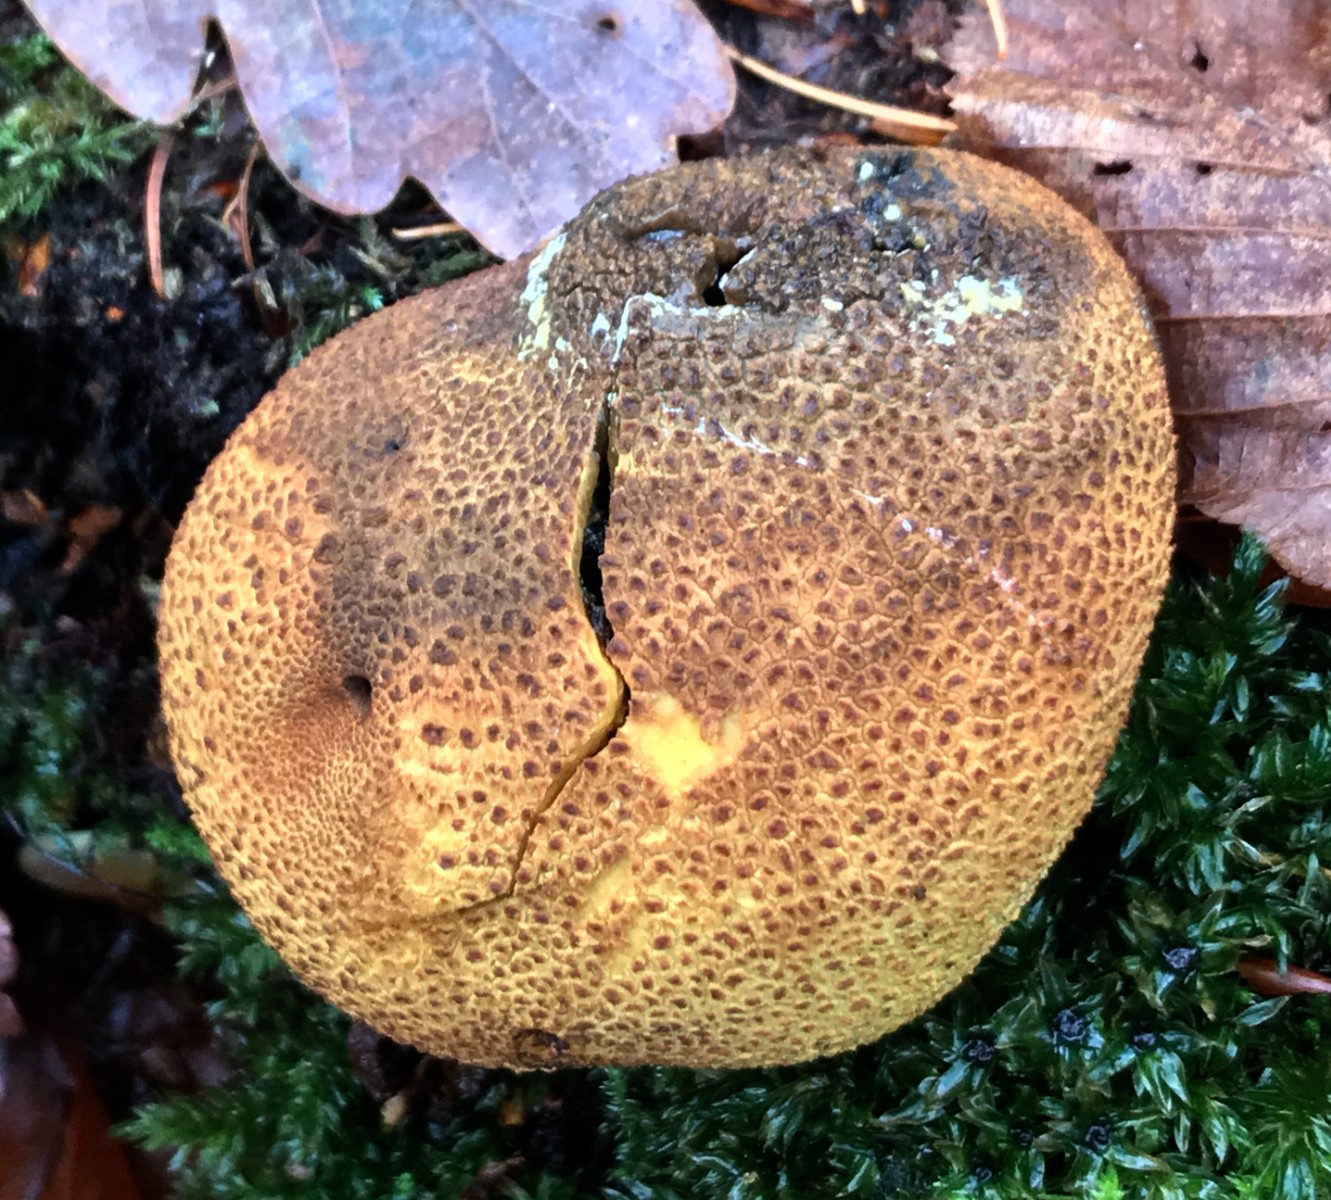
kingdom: Fungi
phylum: Basidiomycota
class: Agaricomycetes
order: Boletales
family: Sclerodermataceae
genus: Scleroderma
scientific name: Scleroderma areolatum
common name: plettet bruskbold
